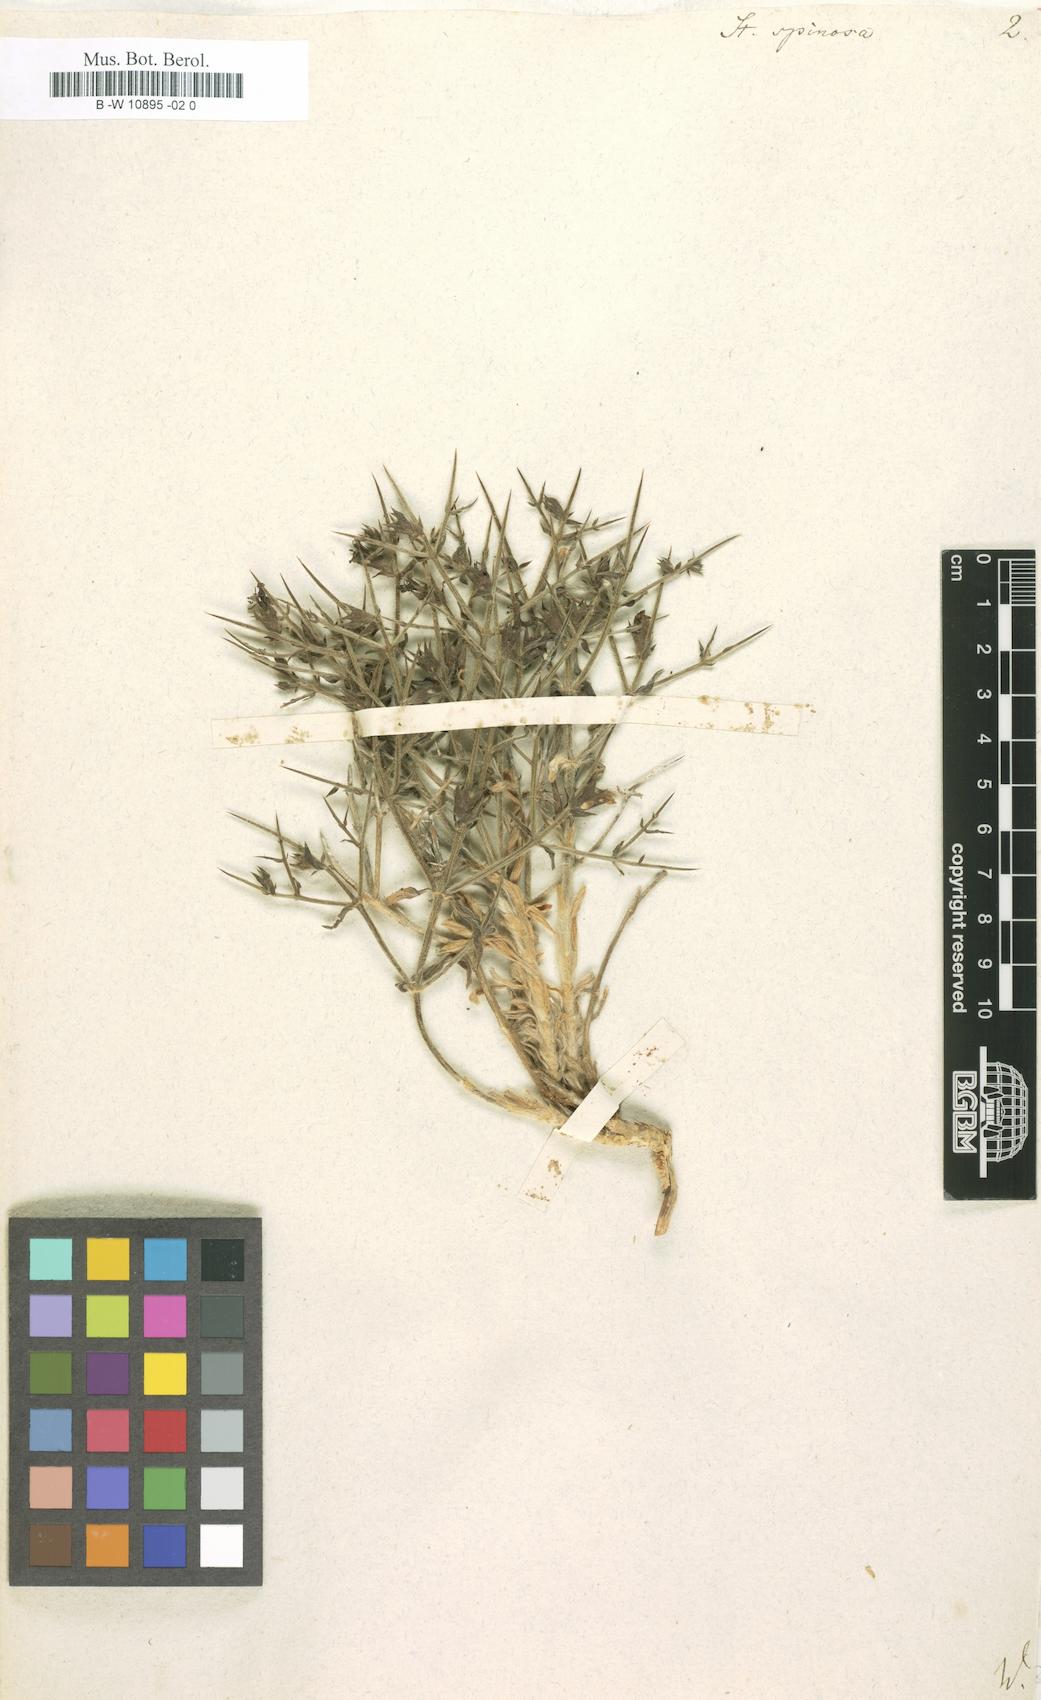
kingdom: Plantae
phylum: Tracheophyta
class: Magnoliopsida
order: Lamiales
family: Lamiaceae
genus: Stachys
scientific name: Stachys spinosa
